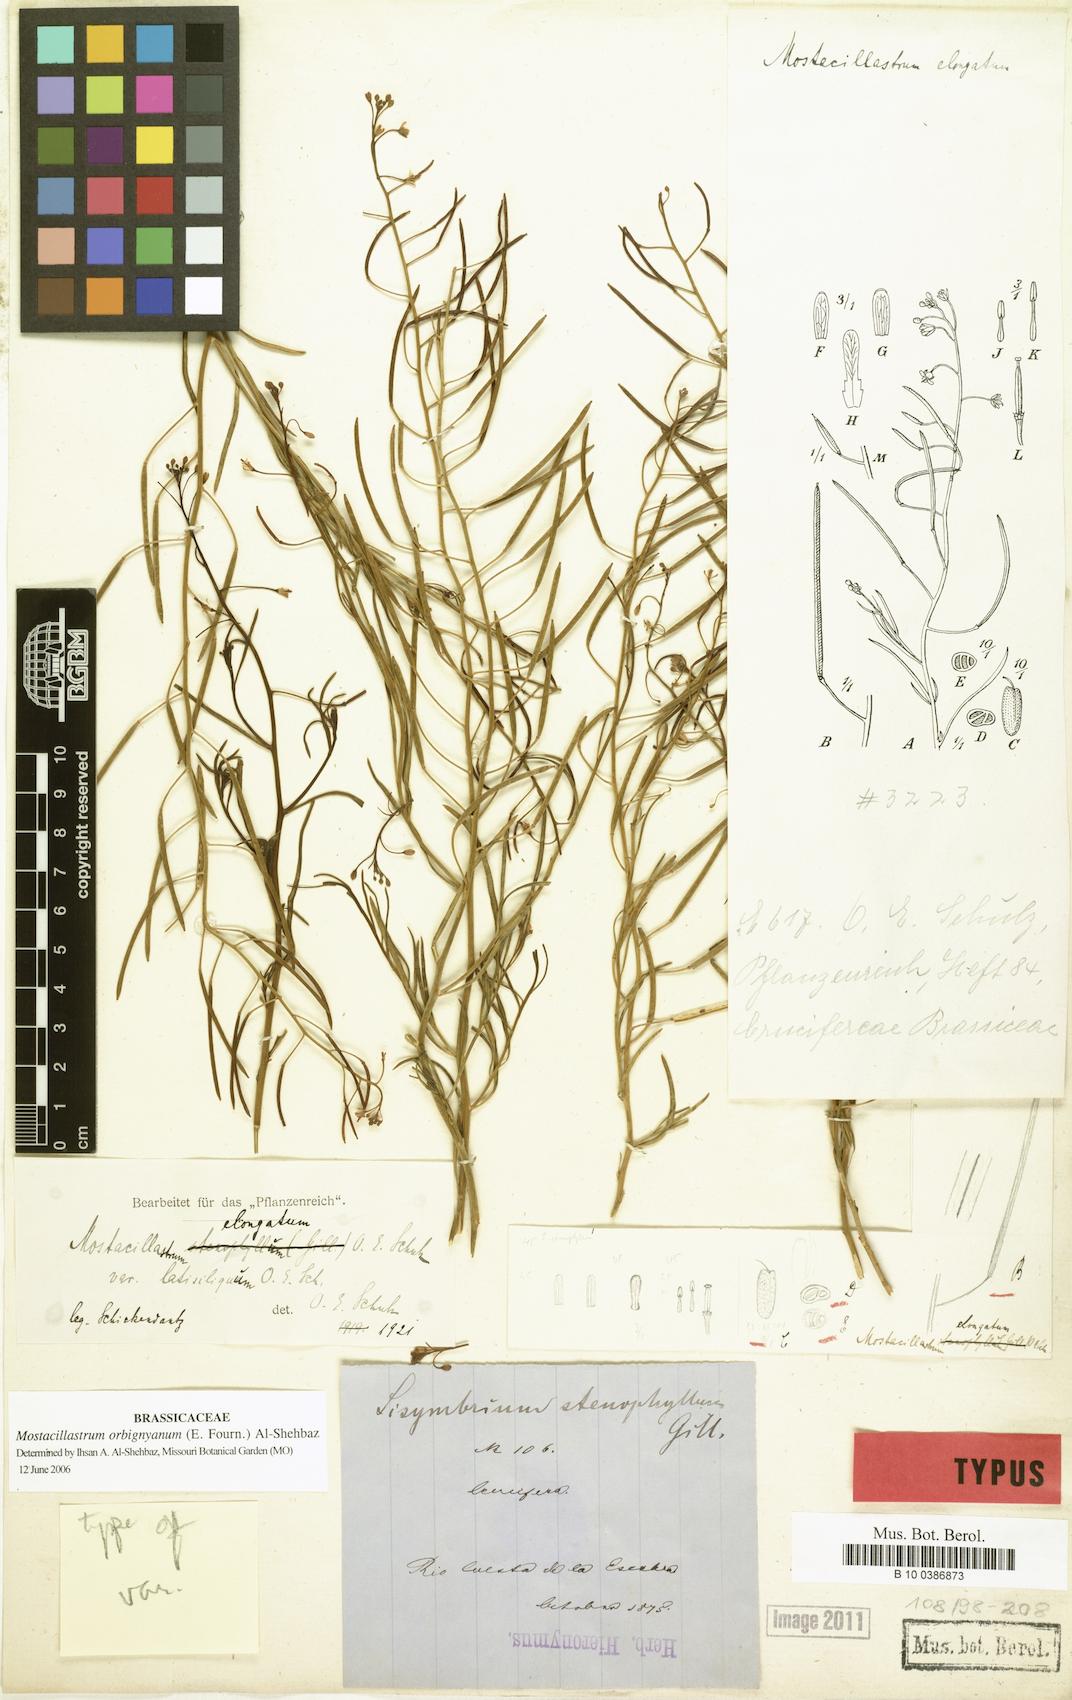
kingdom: Plantae
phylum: Tracheophyta
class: Magnoliopsida
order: Brassicales
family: Brassicaceae
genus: Mostacillastrum
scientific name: Mostacillastrum orbignyanum
